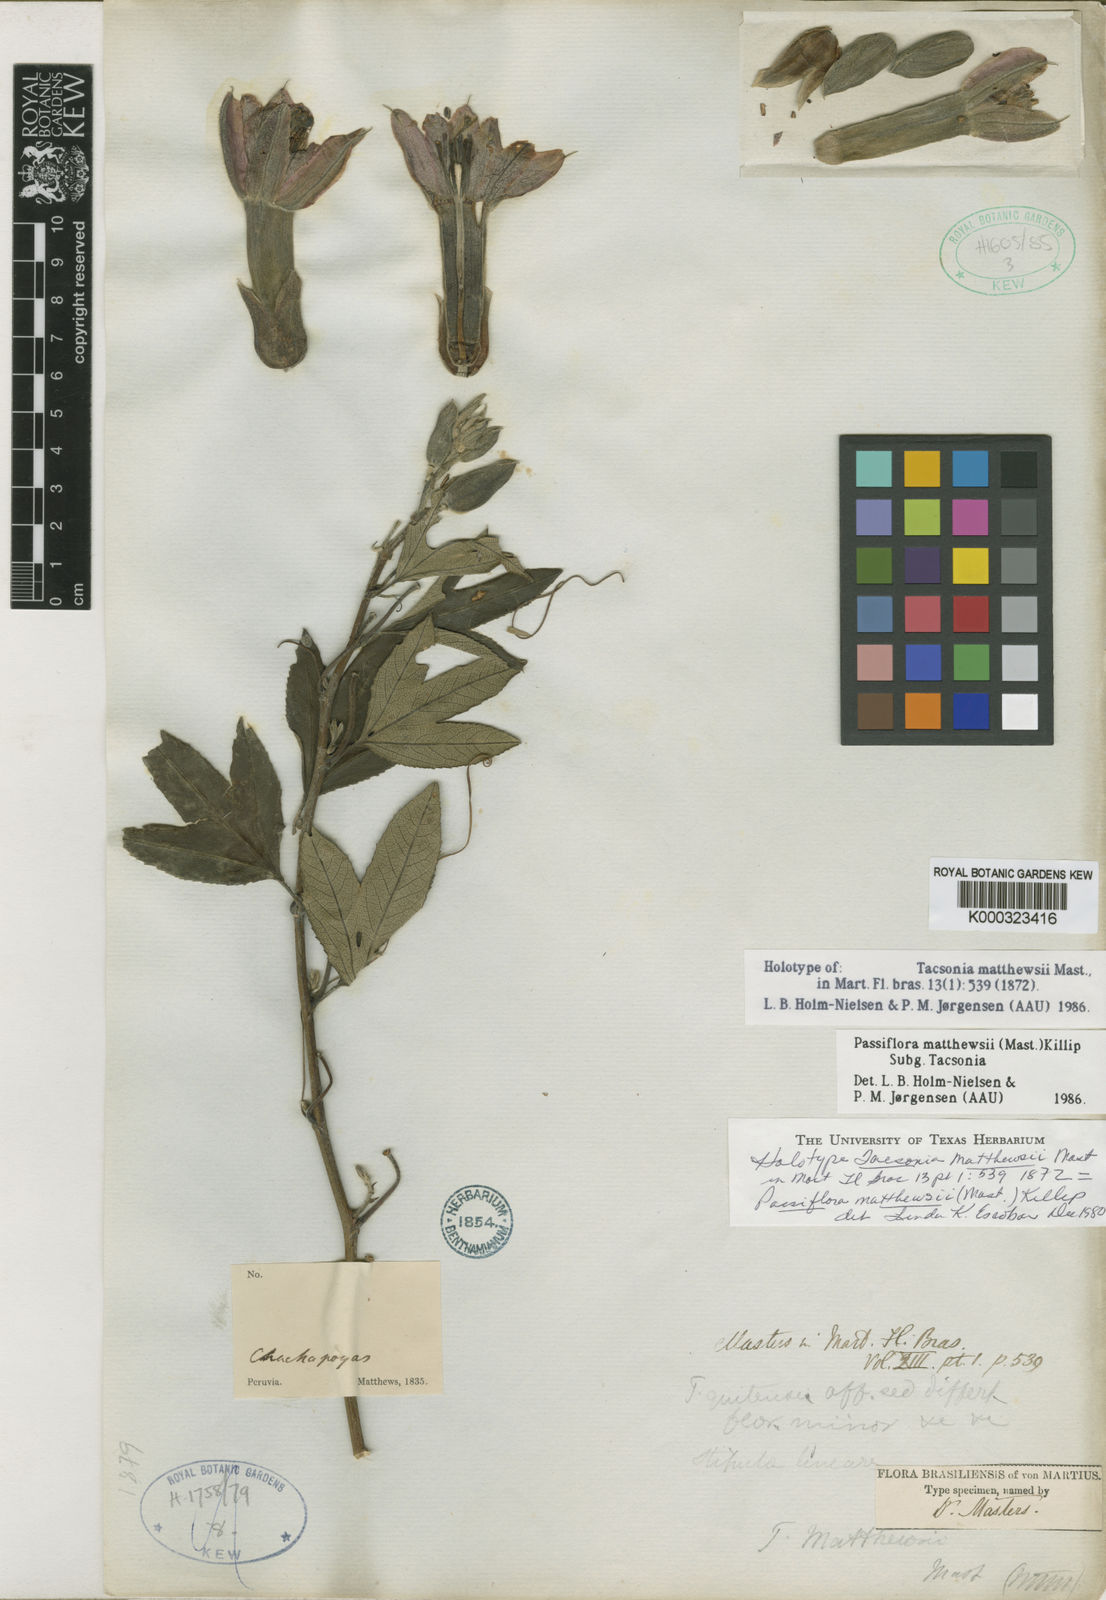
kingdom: Plantae
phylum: Tracheophyta
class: Magnoliopsida
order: Malpighiales
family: Passifloraceae
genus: Passiflora
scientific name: Passiflora mathewsii
